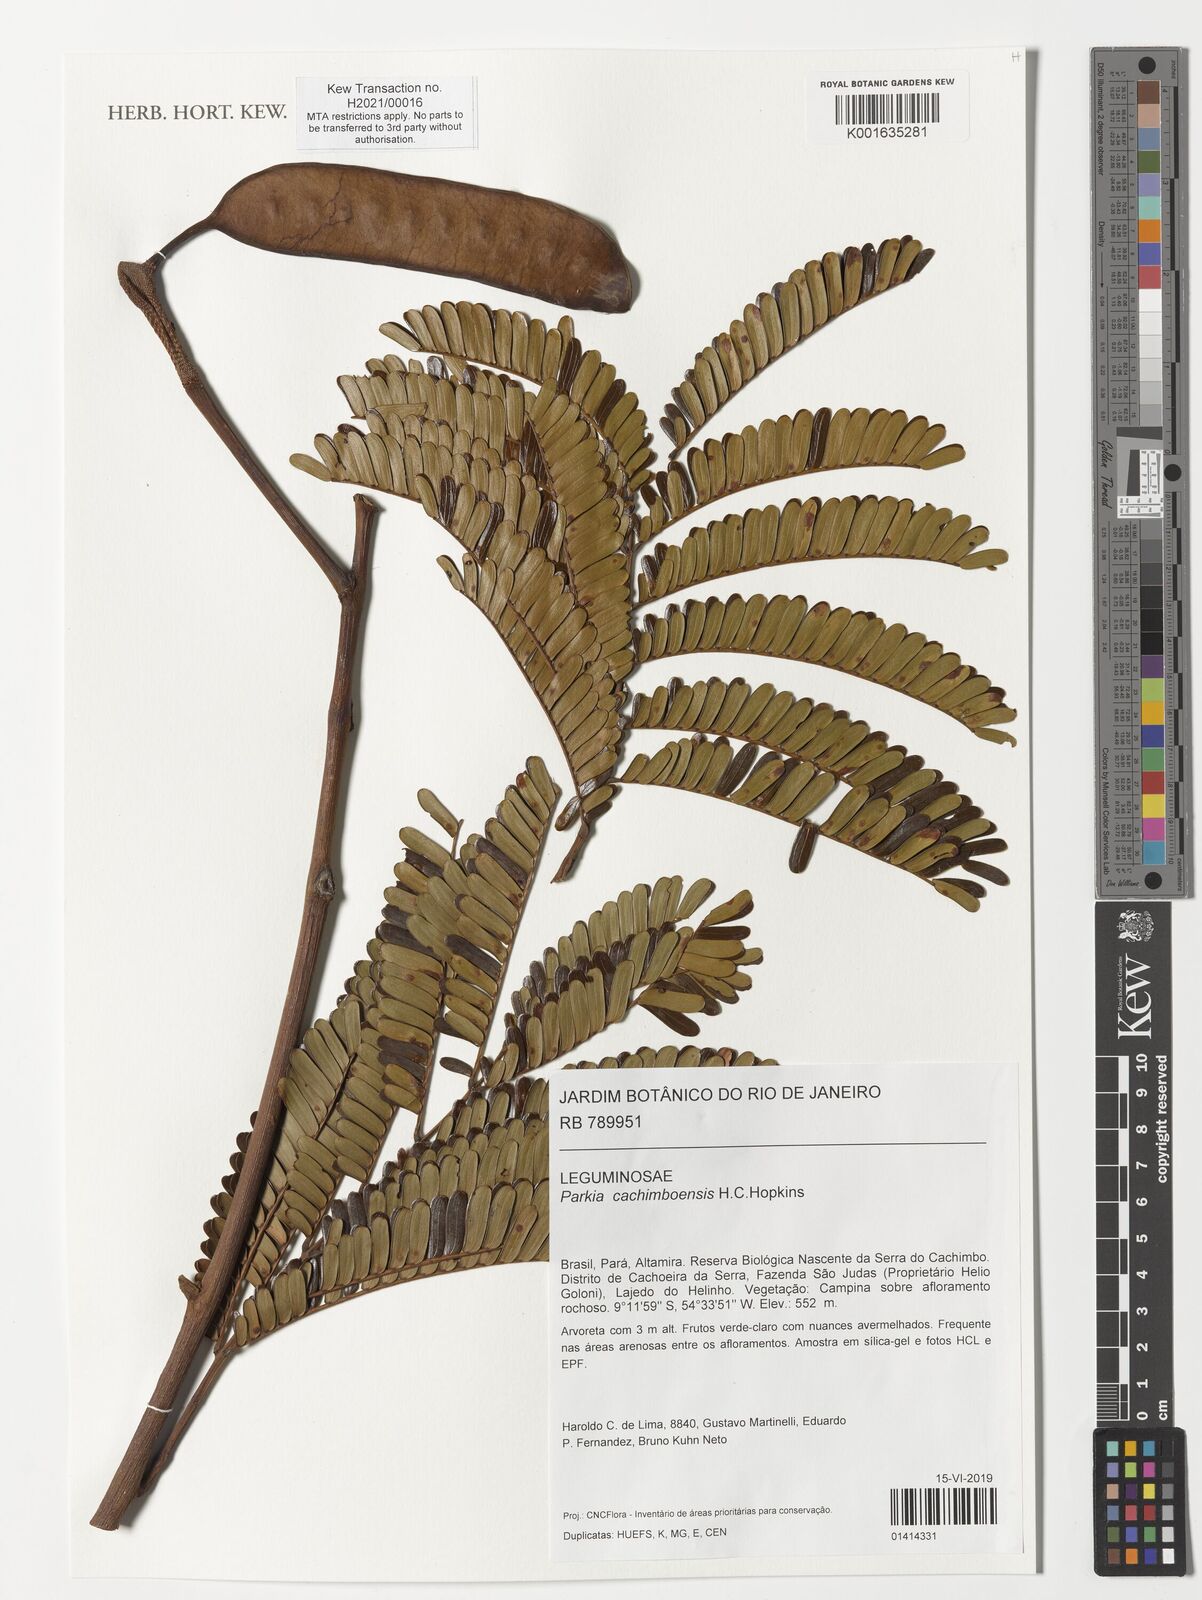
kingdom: Plantae
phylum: Tracheophyta
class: Magnoliopsida
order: Fabales
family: Fabaceae
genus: Parkia
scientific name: Parkia cachimboensis
